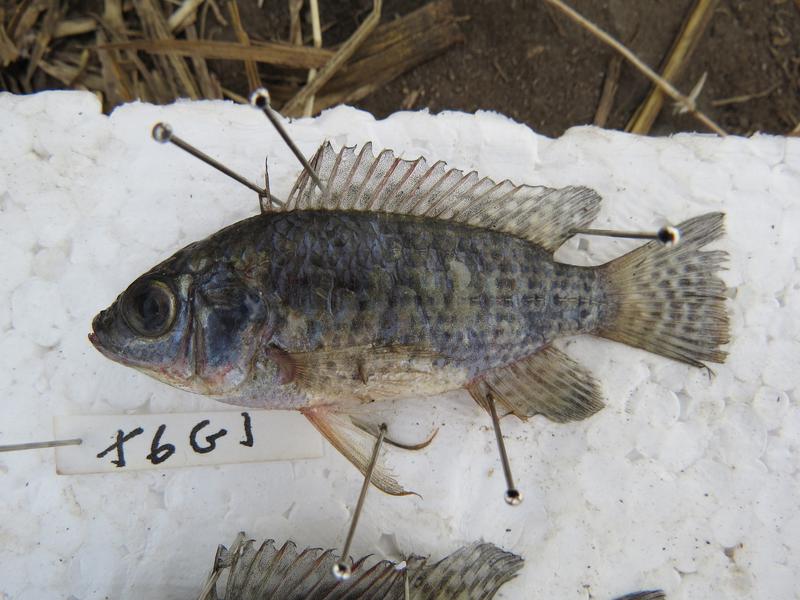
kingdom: Animalia
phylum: Chordata
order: Perciformes
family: Cichlidae
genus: Oreochromis
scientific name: Oreochromis leucostictus
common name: Blue spotted tilapia
